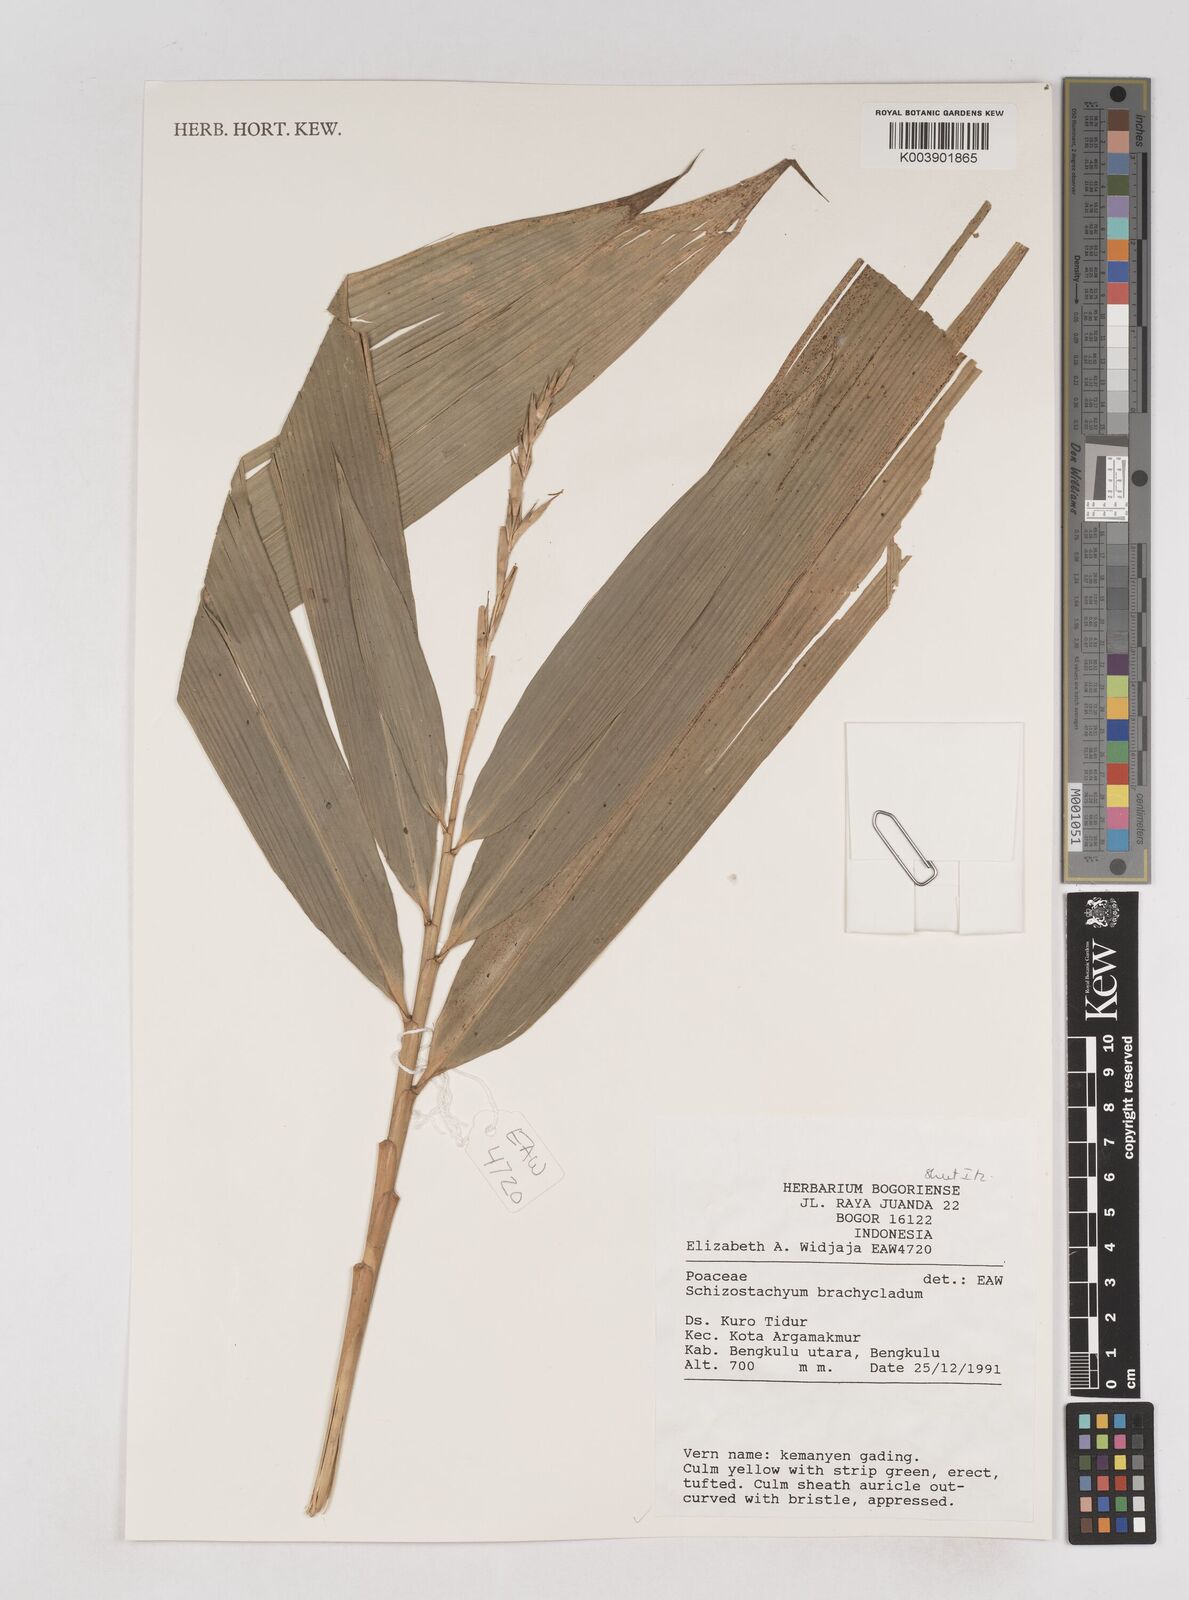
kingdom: Plantae
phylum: Tracheophyta
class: Liliopsida
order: Poales
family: Poaceae
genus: Schizostachyum
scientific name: Schizostachyum brachycladum
